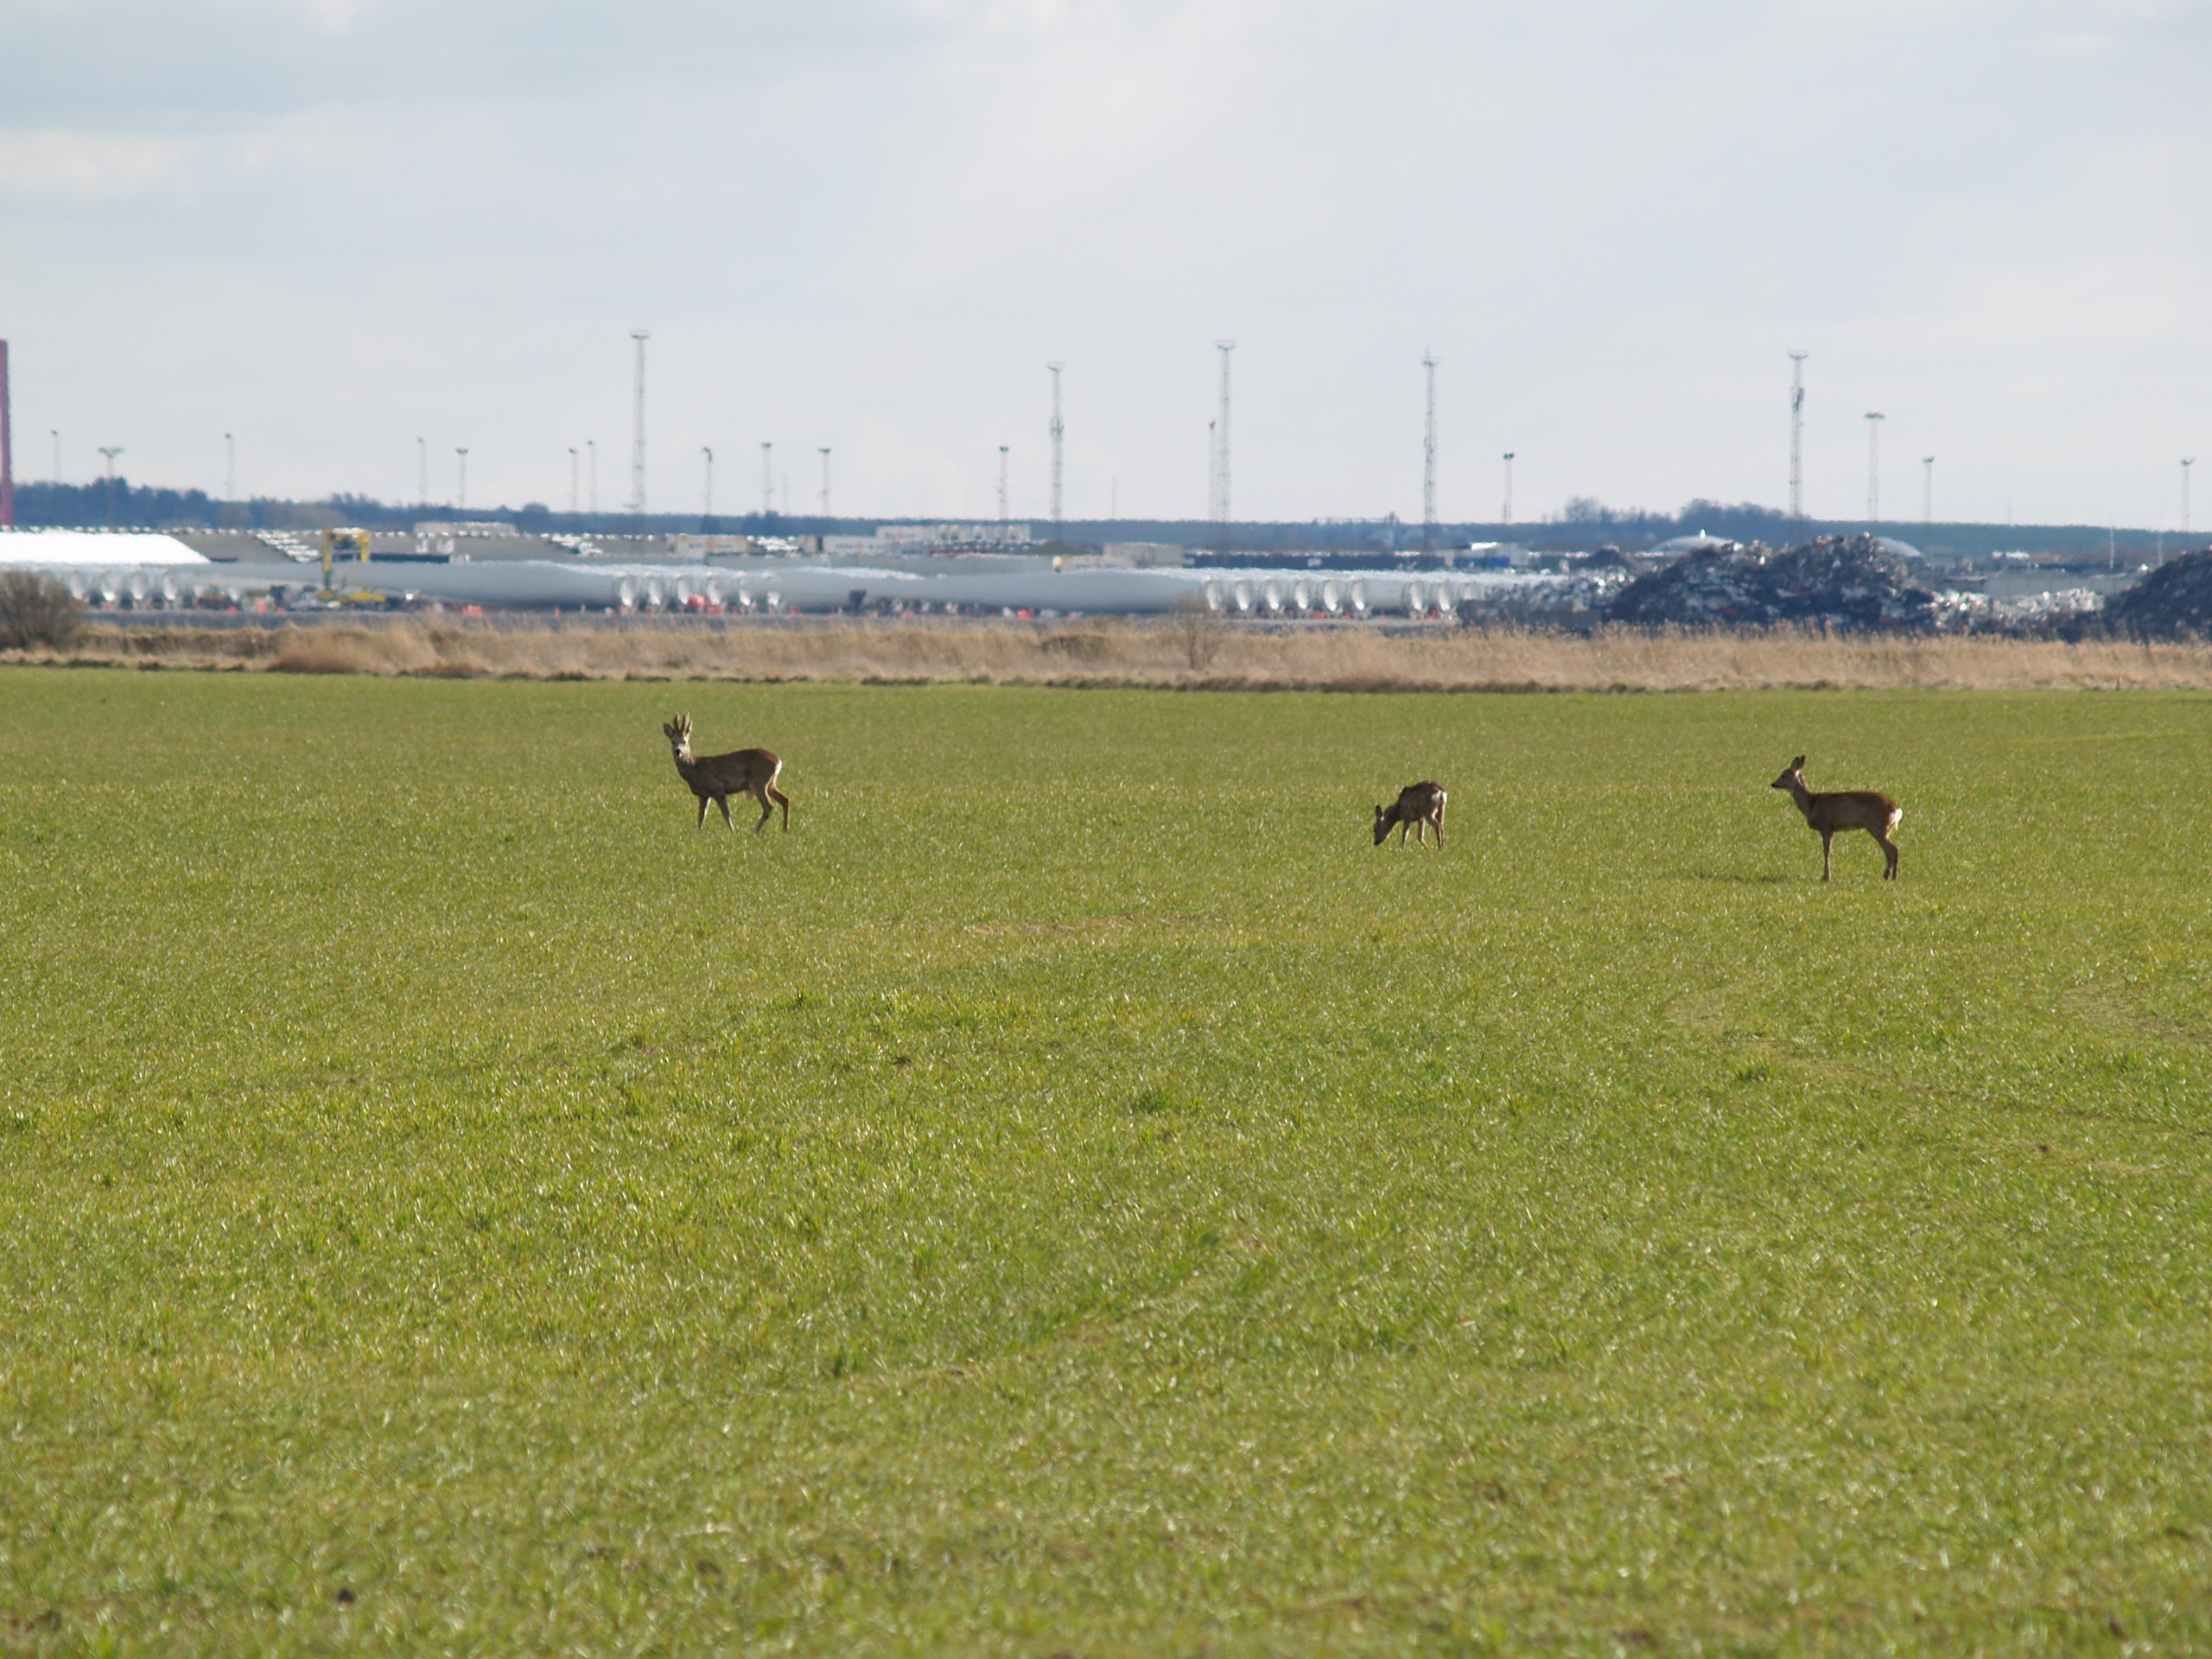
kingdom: Animalia
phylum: Chordata
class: Mammalia
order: Artiodactyla
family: Cervidae
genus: Capreolus
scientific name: Capreolus capreolus
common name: Rådyr
